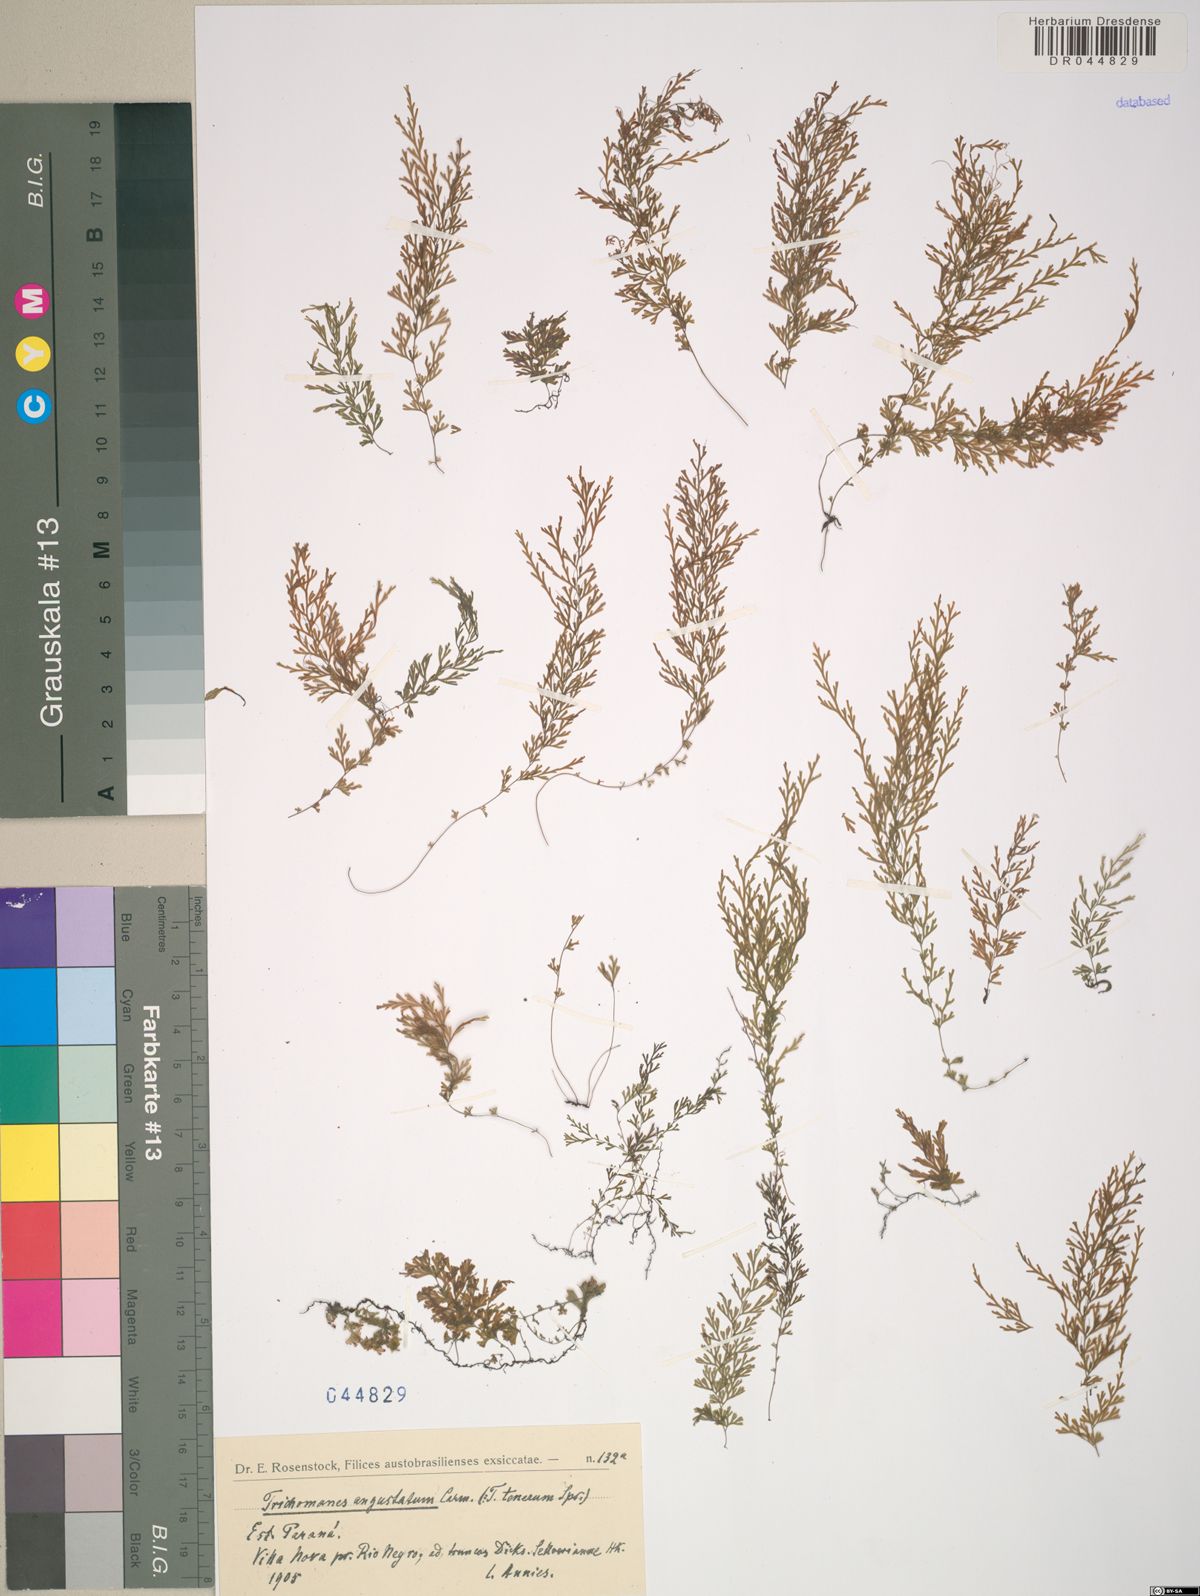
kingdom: Plantae
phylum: Tracheophyta
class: Polypodiopsida
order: Hymenophyllales
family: Hymenophyllaceae
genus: Polyphlebium
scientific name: Polyphlebium angustatum
